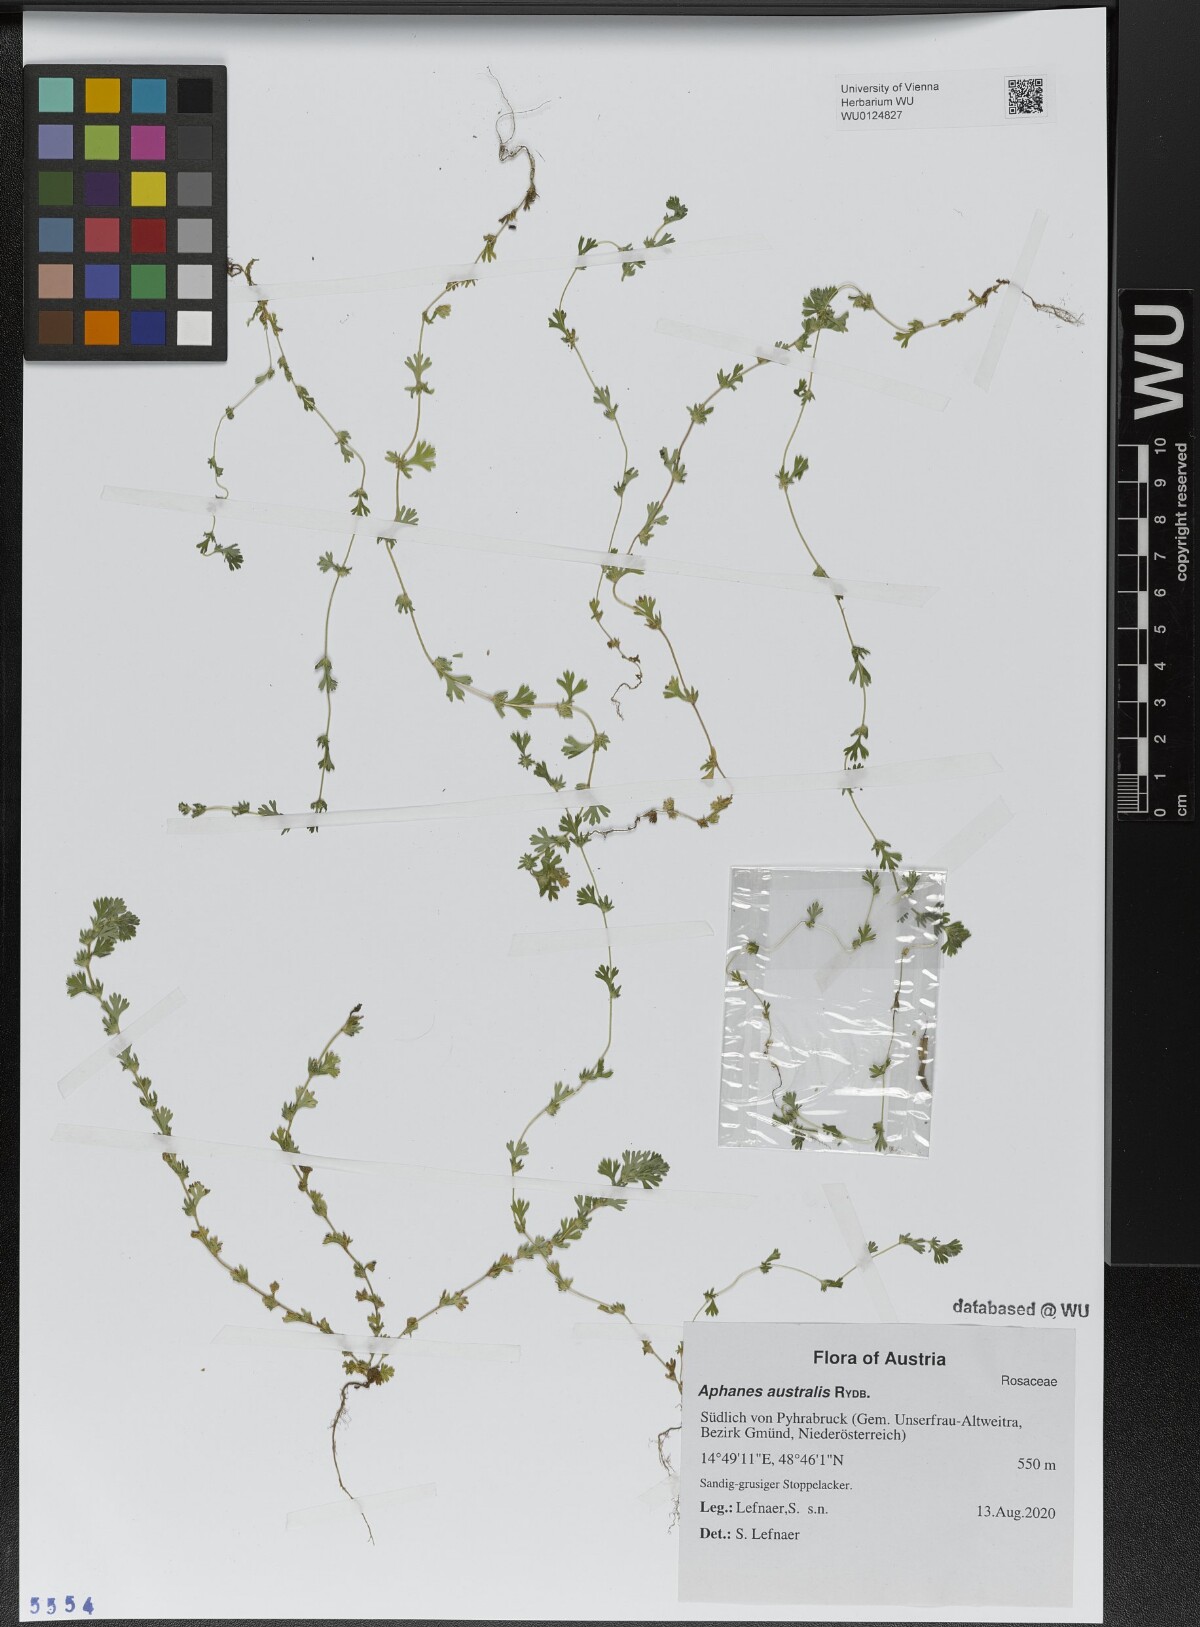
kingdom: Plantae
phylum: Tracheophyta
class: Magnoliopsida
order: Rosales
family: Rosaceae
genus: Aphanes
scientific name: Aphanes australis
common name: Slender parsley-piert
